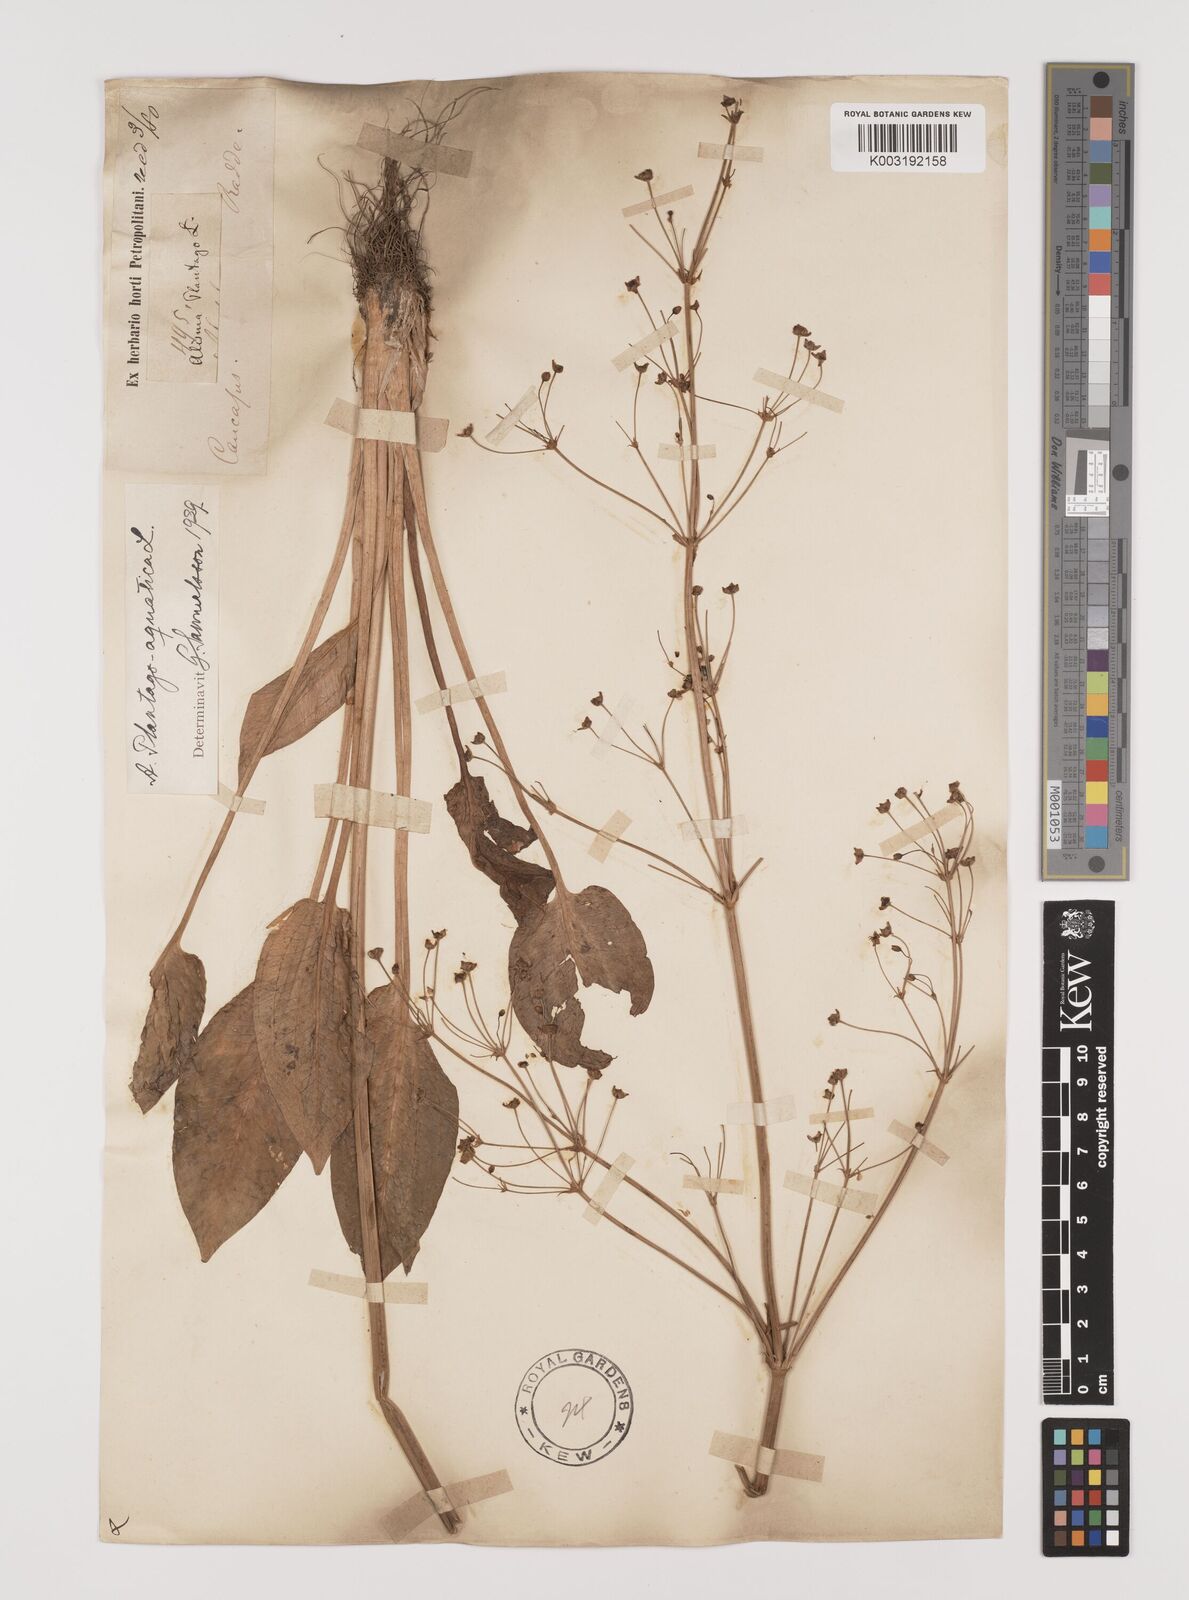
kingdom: Plantae
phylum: Tracheophyta
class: Liliopsida
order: Alismatales
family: Alismataceae
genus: Alisma
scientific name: Alisma plantago-aquatica
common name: Water-plantain
